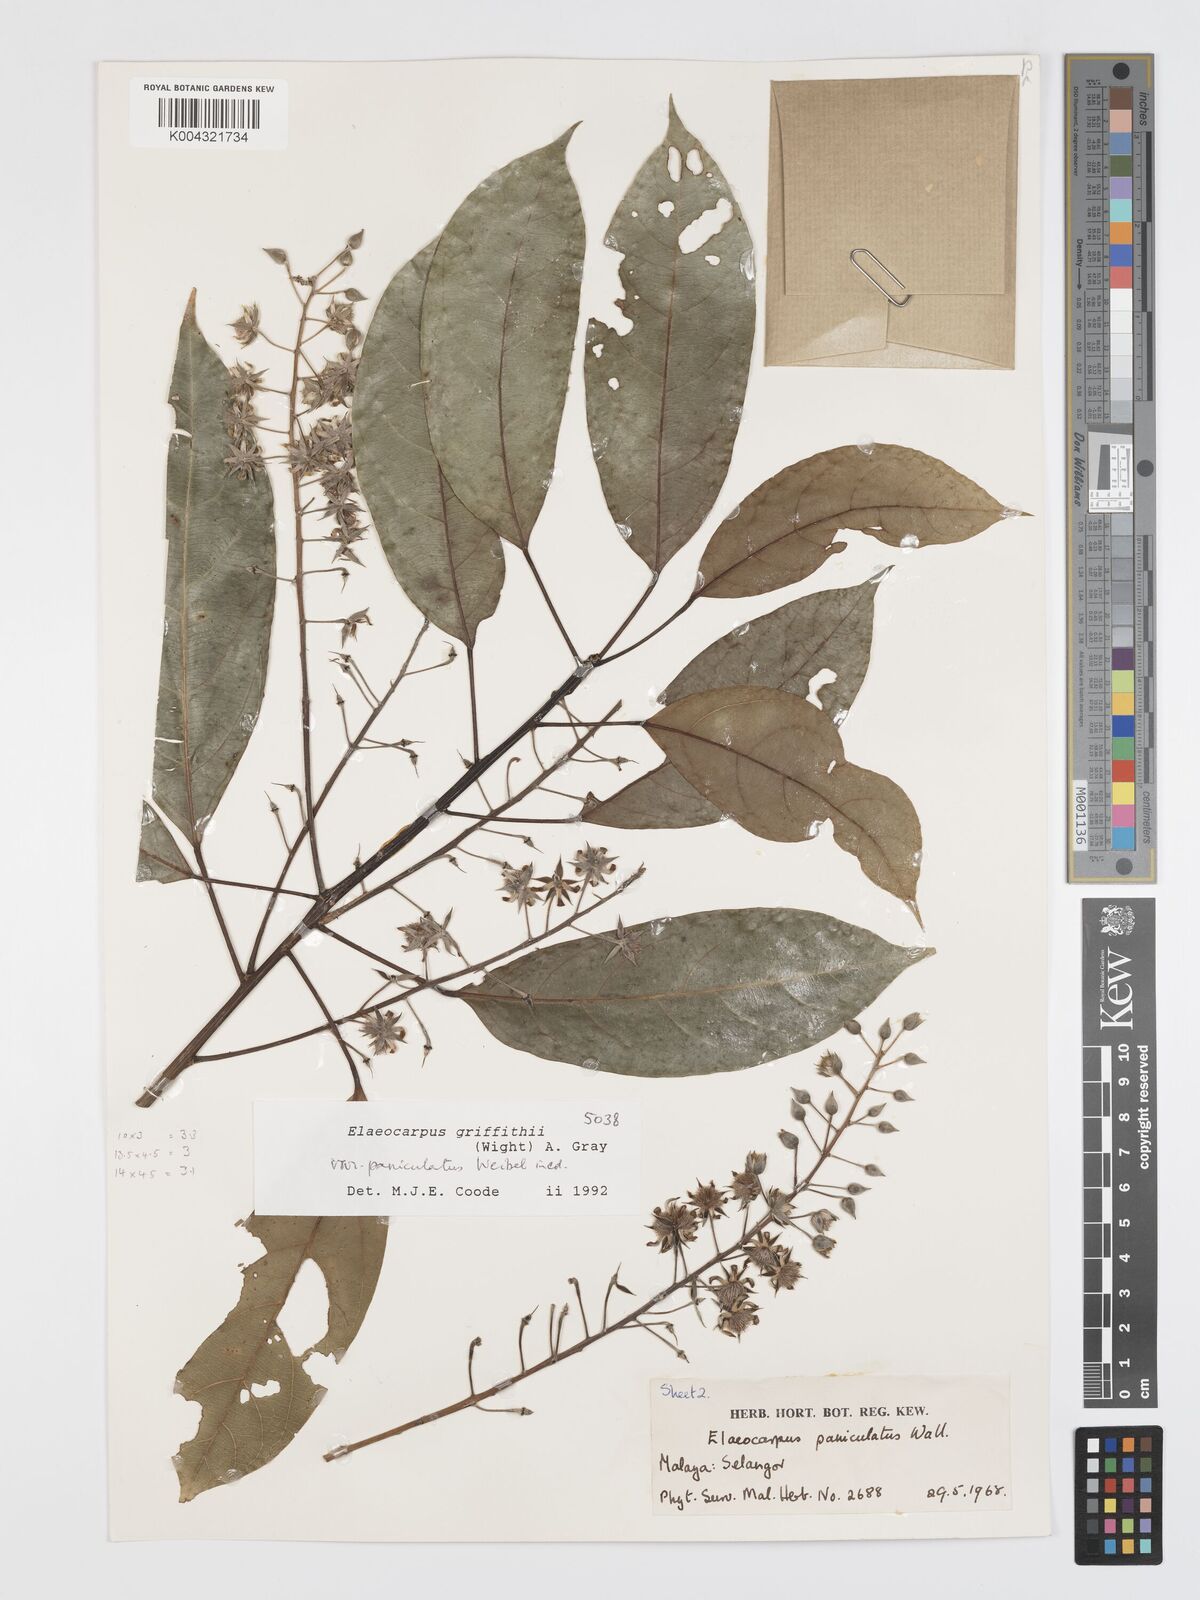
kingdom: Plantae
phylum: Tracheophyta
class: Magnoliopsida
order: Oxalidales
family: Elaeocarpaceae
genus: Elaeocarpus
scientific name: Elaeocarpus griffithii
